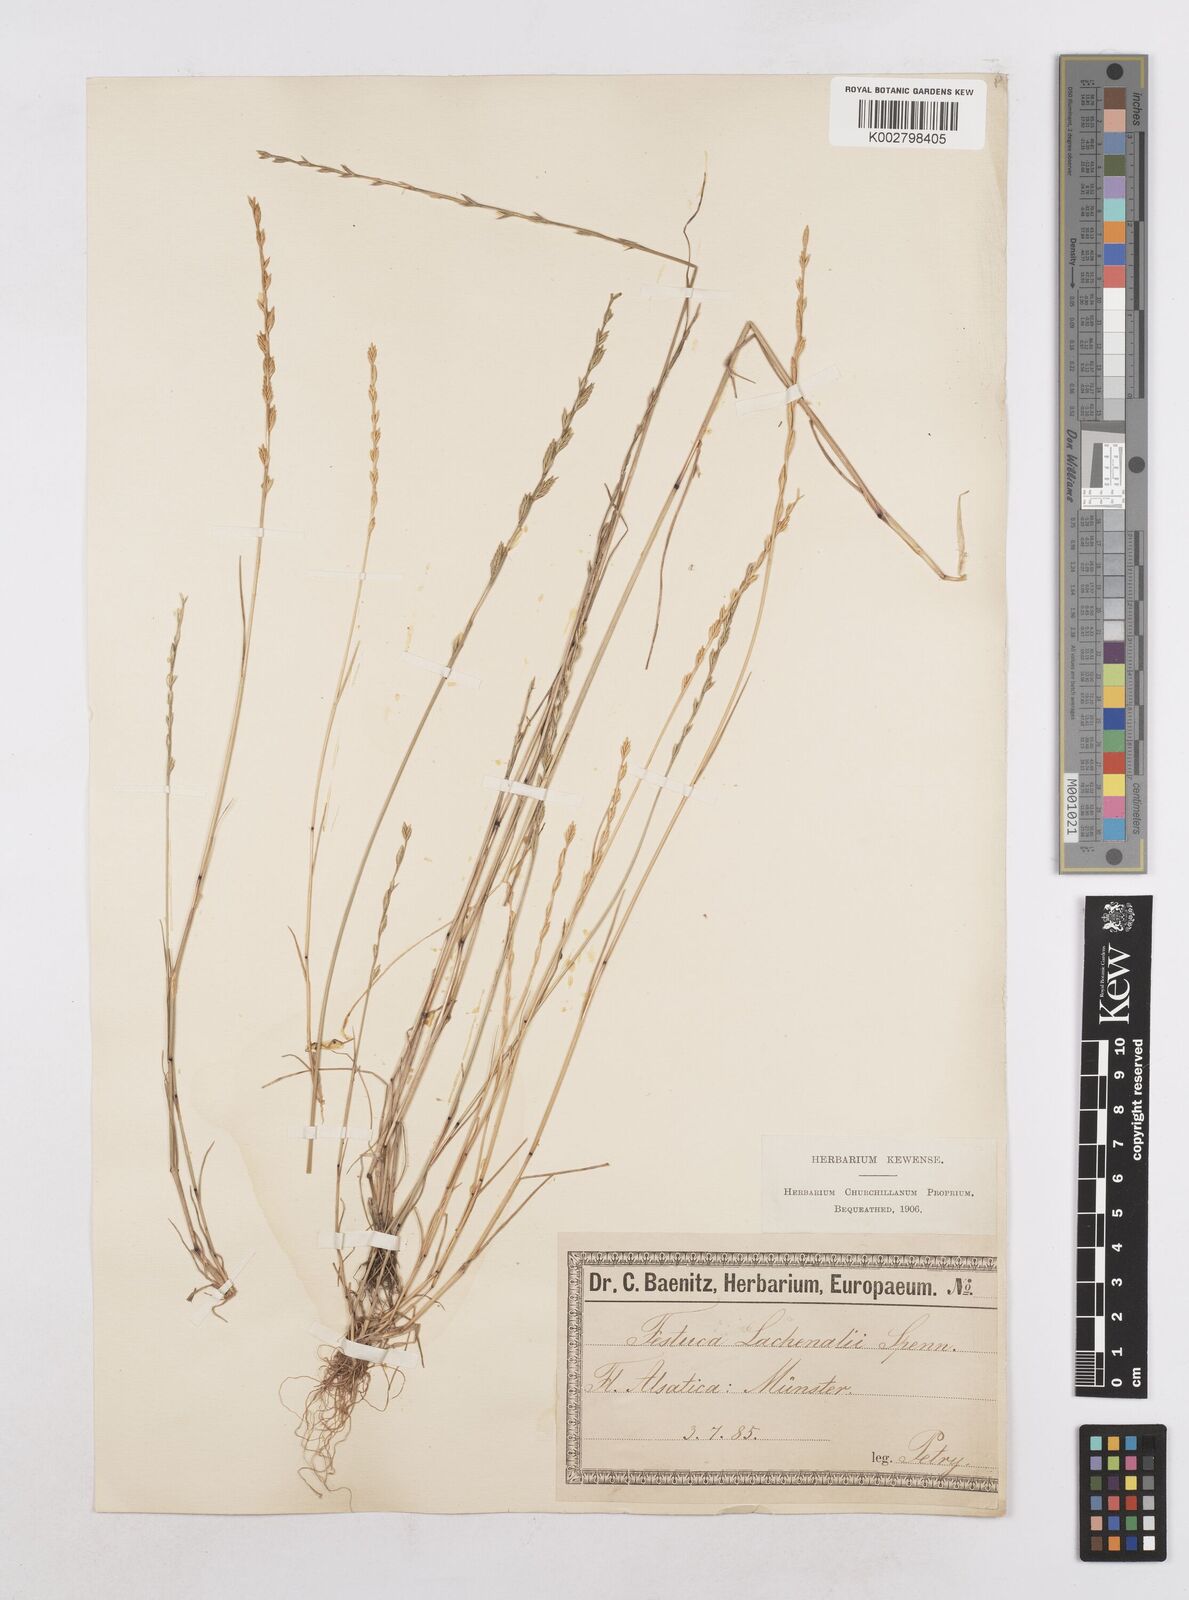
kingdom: Plantae
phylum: Tracheophyta
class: Liliopsida
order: Poales
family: Poaceae
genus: Festuca
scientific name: Festuca lachenalii
